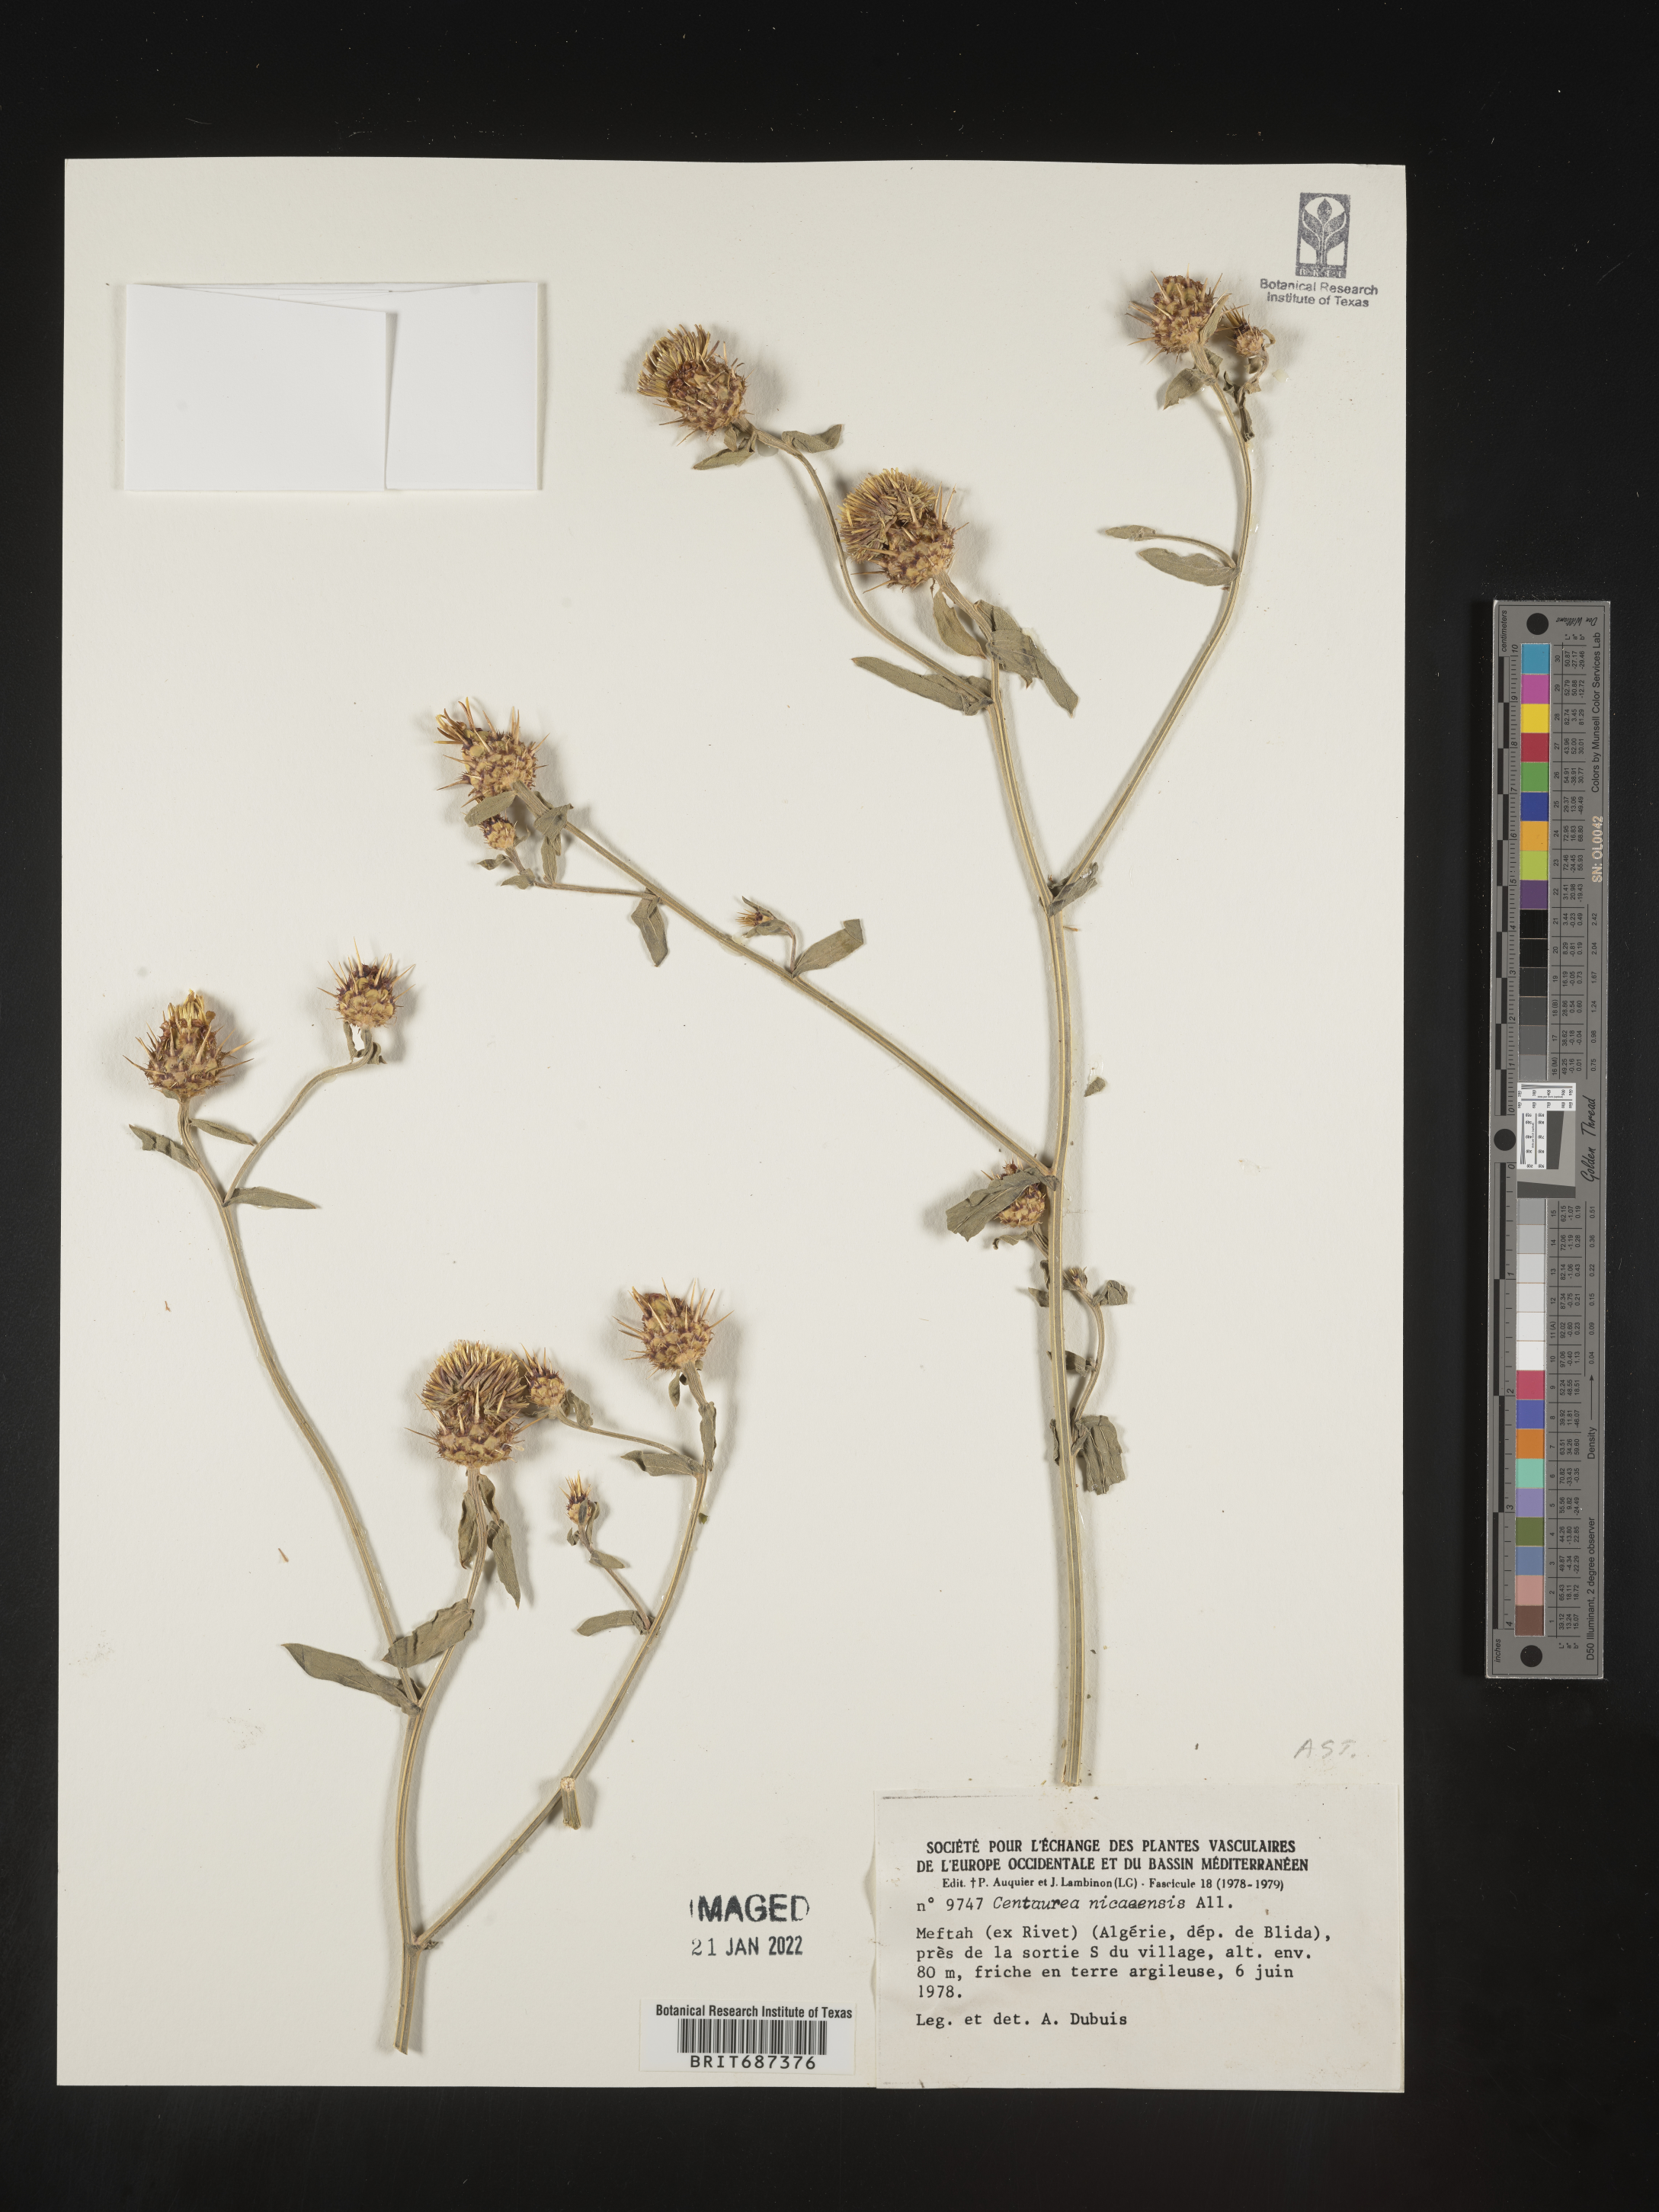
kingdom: Plantae
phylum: Tracheophyta
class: Magnoliopsida
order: Asterales
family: Asteraceae
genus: Centaurea
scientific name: Centaurea
